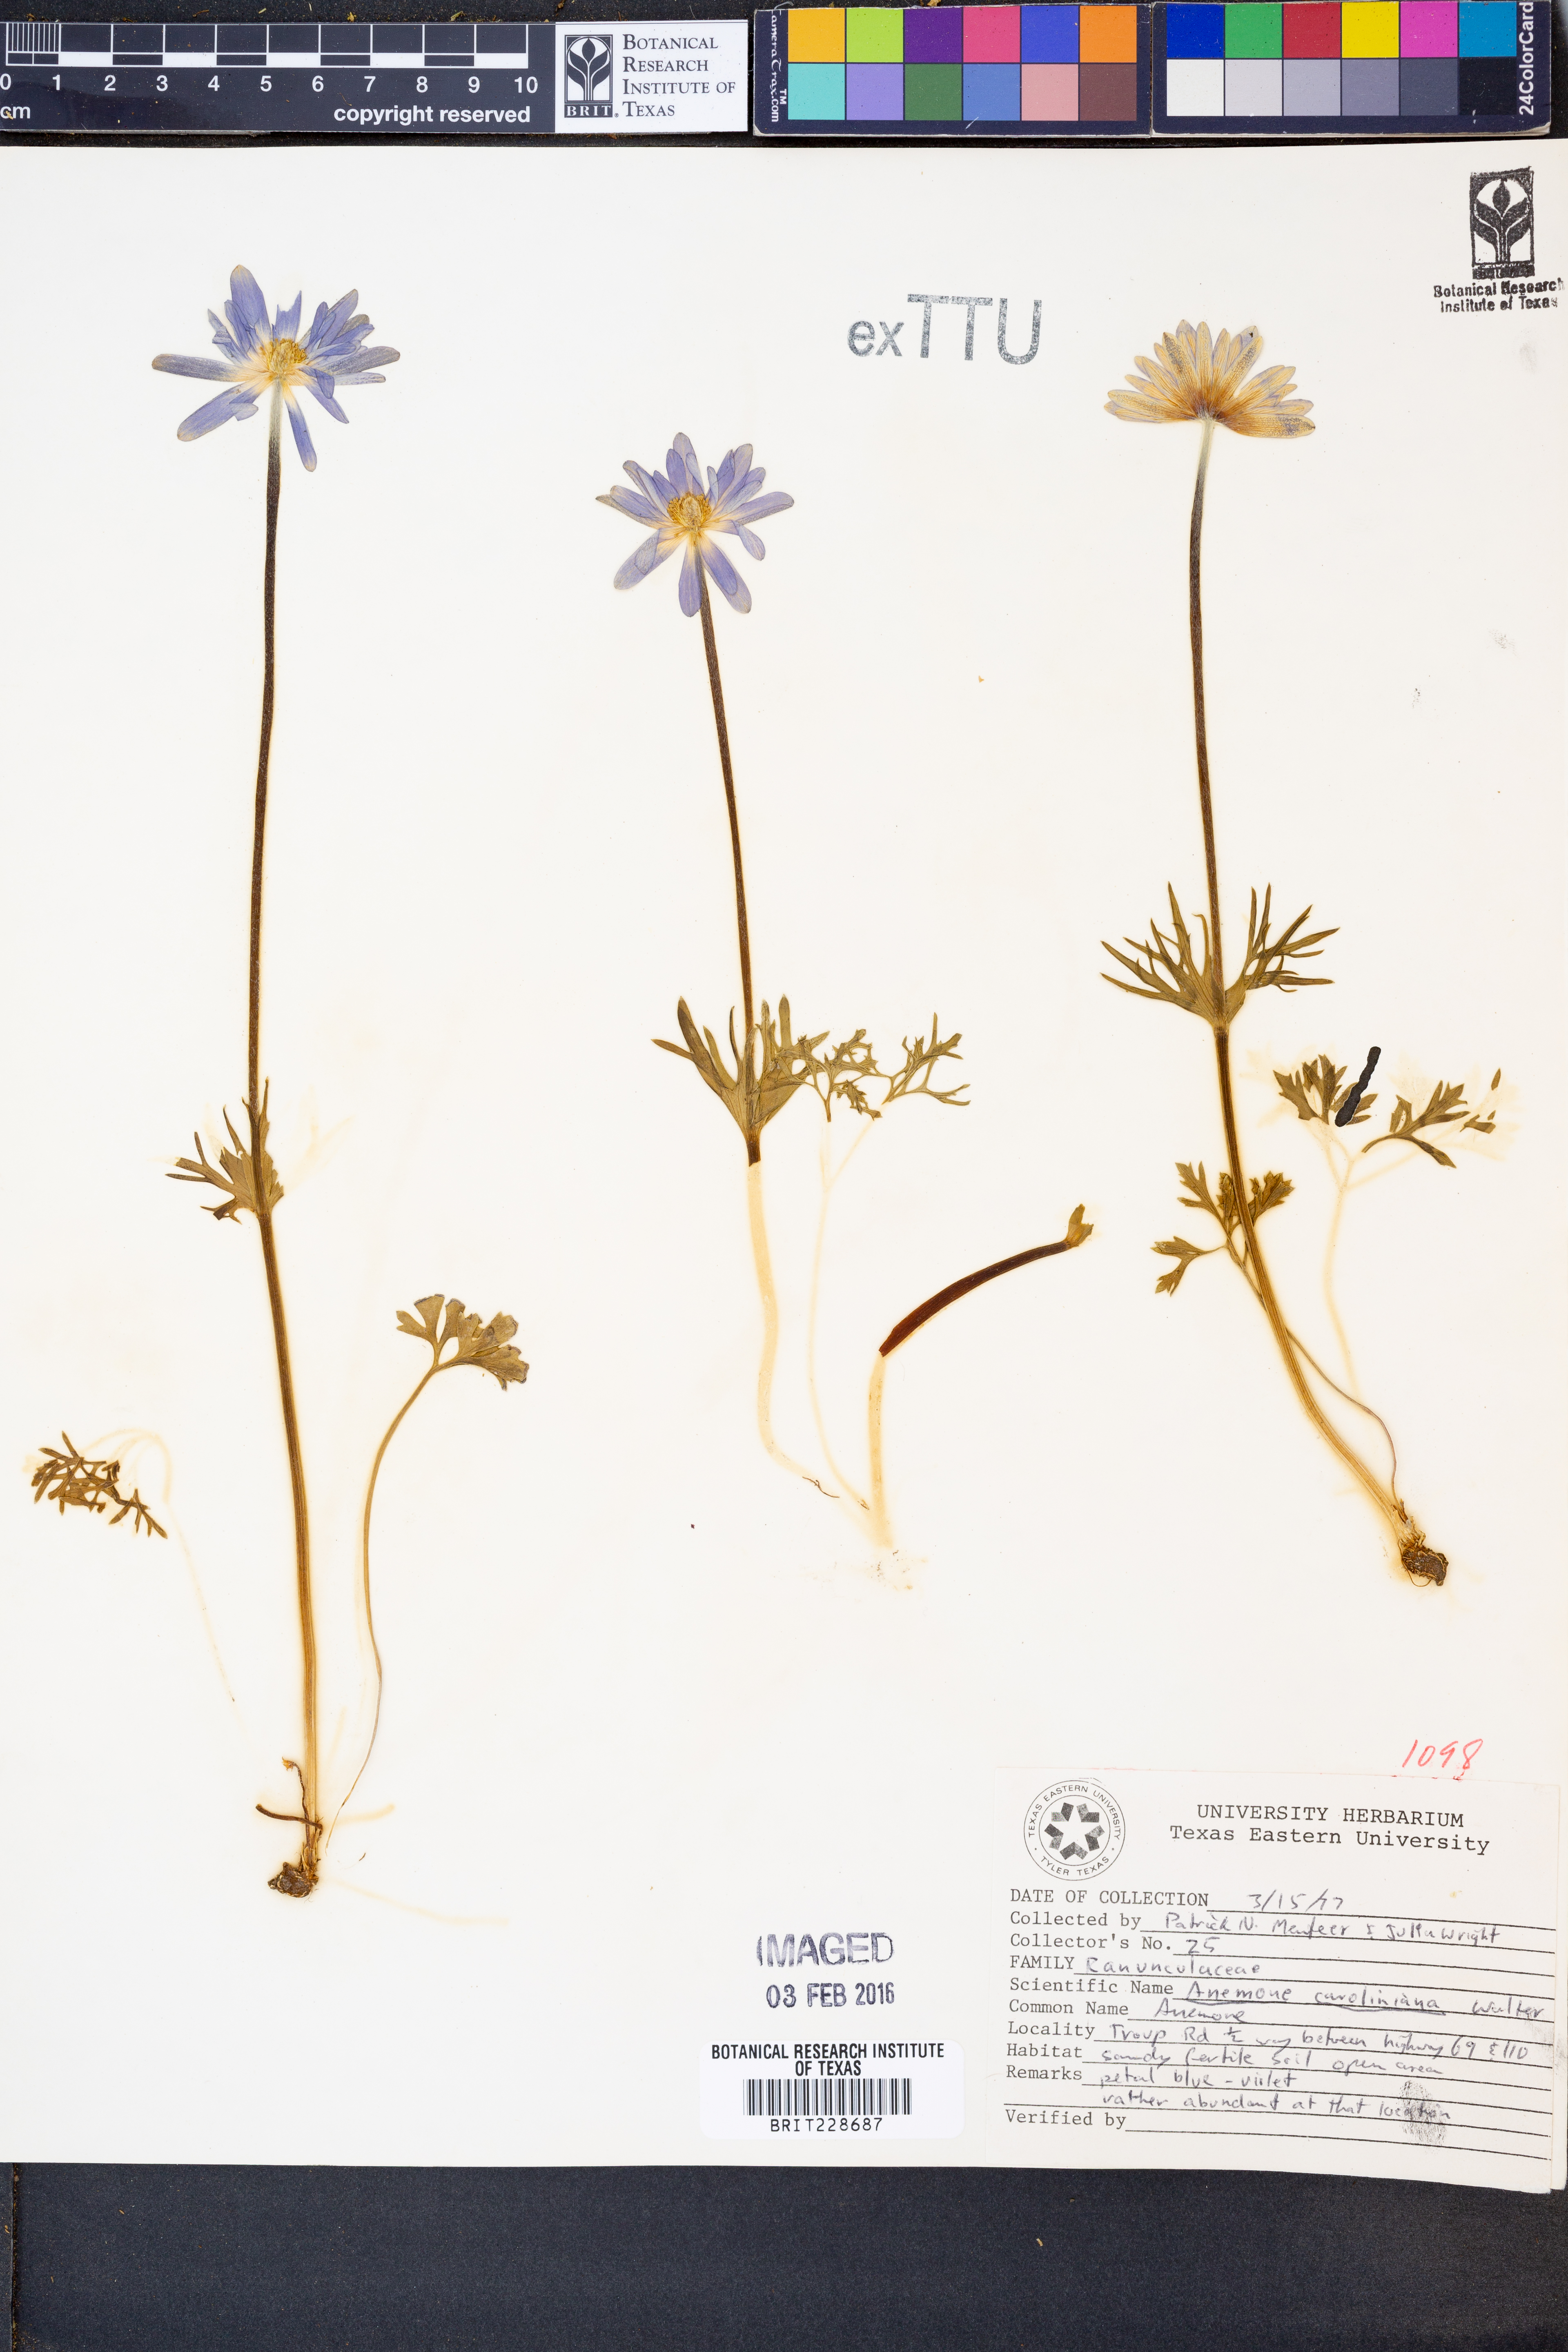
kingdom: Plantae
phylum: Tracheophyta
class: Magnoliopsida
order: Ranunculales
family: Ranunculaceae
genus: Anemone
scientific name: Anemone caroliniana
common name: Carolina anemone
